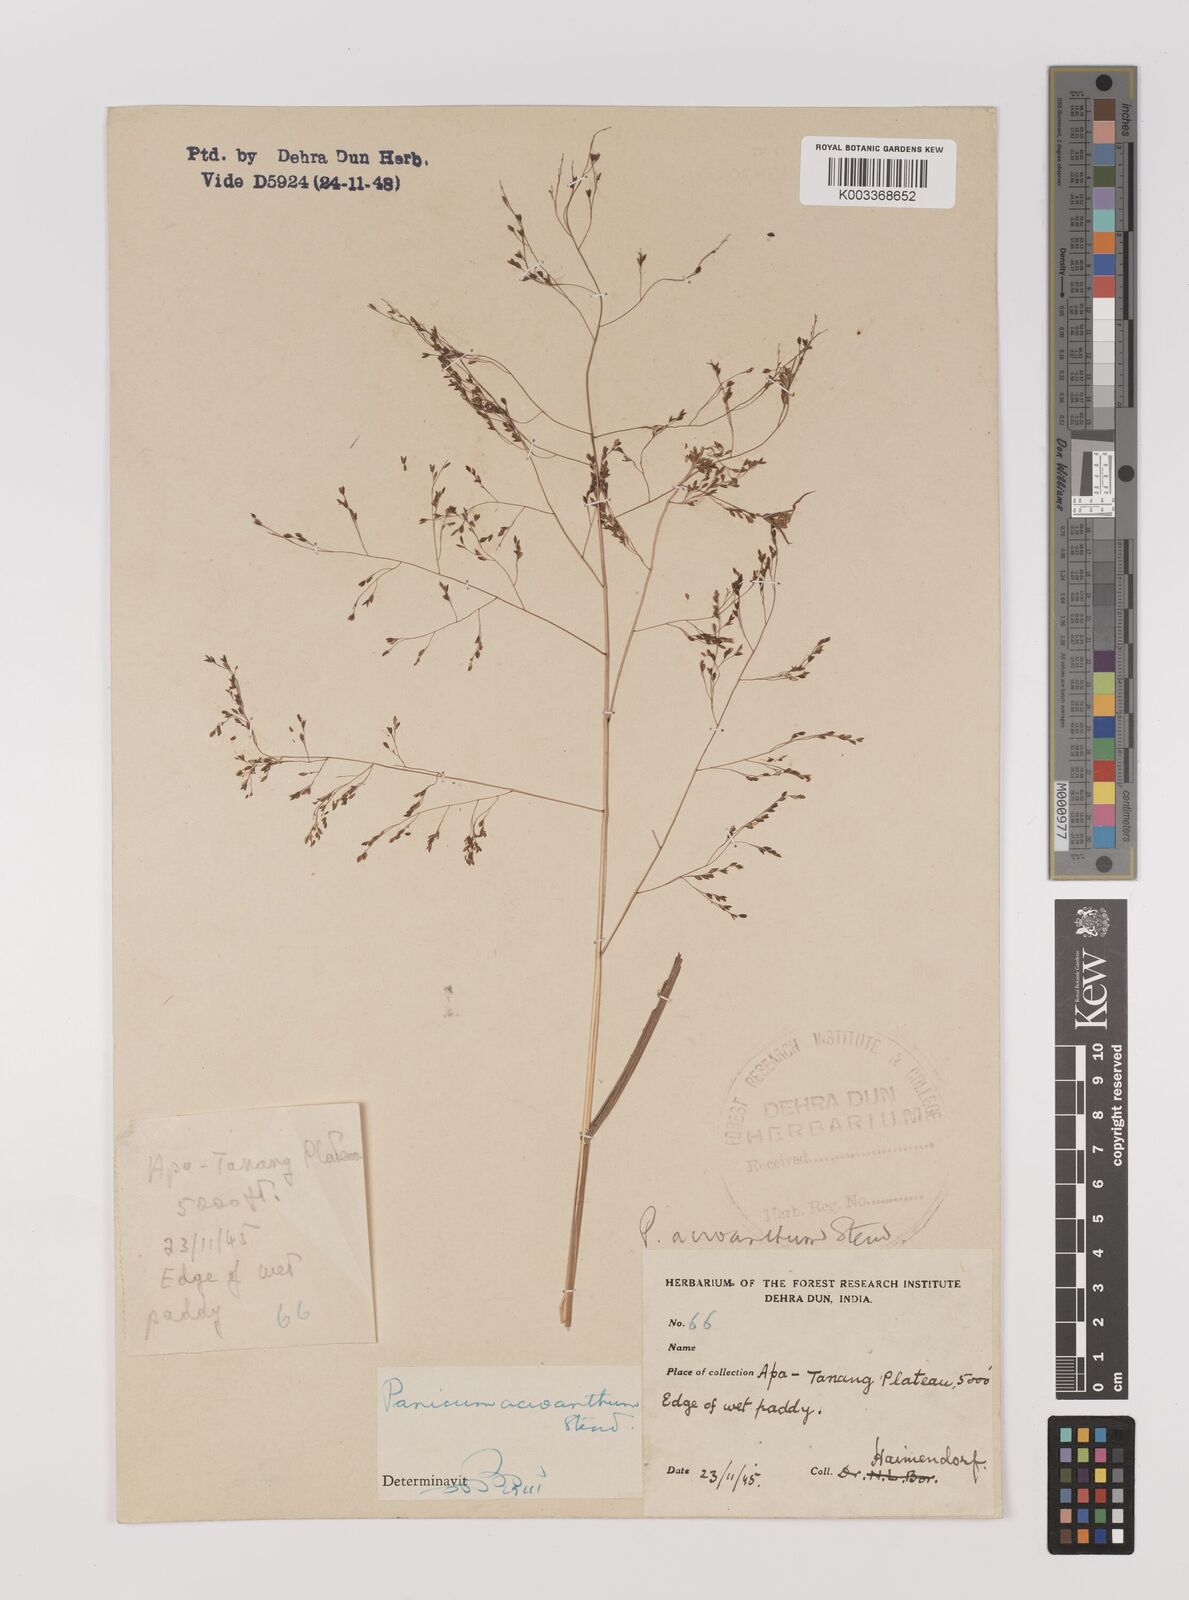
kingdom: Plantae
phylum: Tracheophyta
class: Liliopsida
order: Poales
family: Poaceae
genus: Panicum
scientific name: Panicum bisulcatum
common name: Japanese panicgrass
